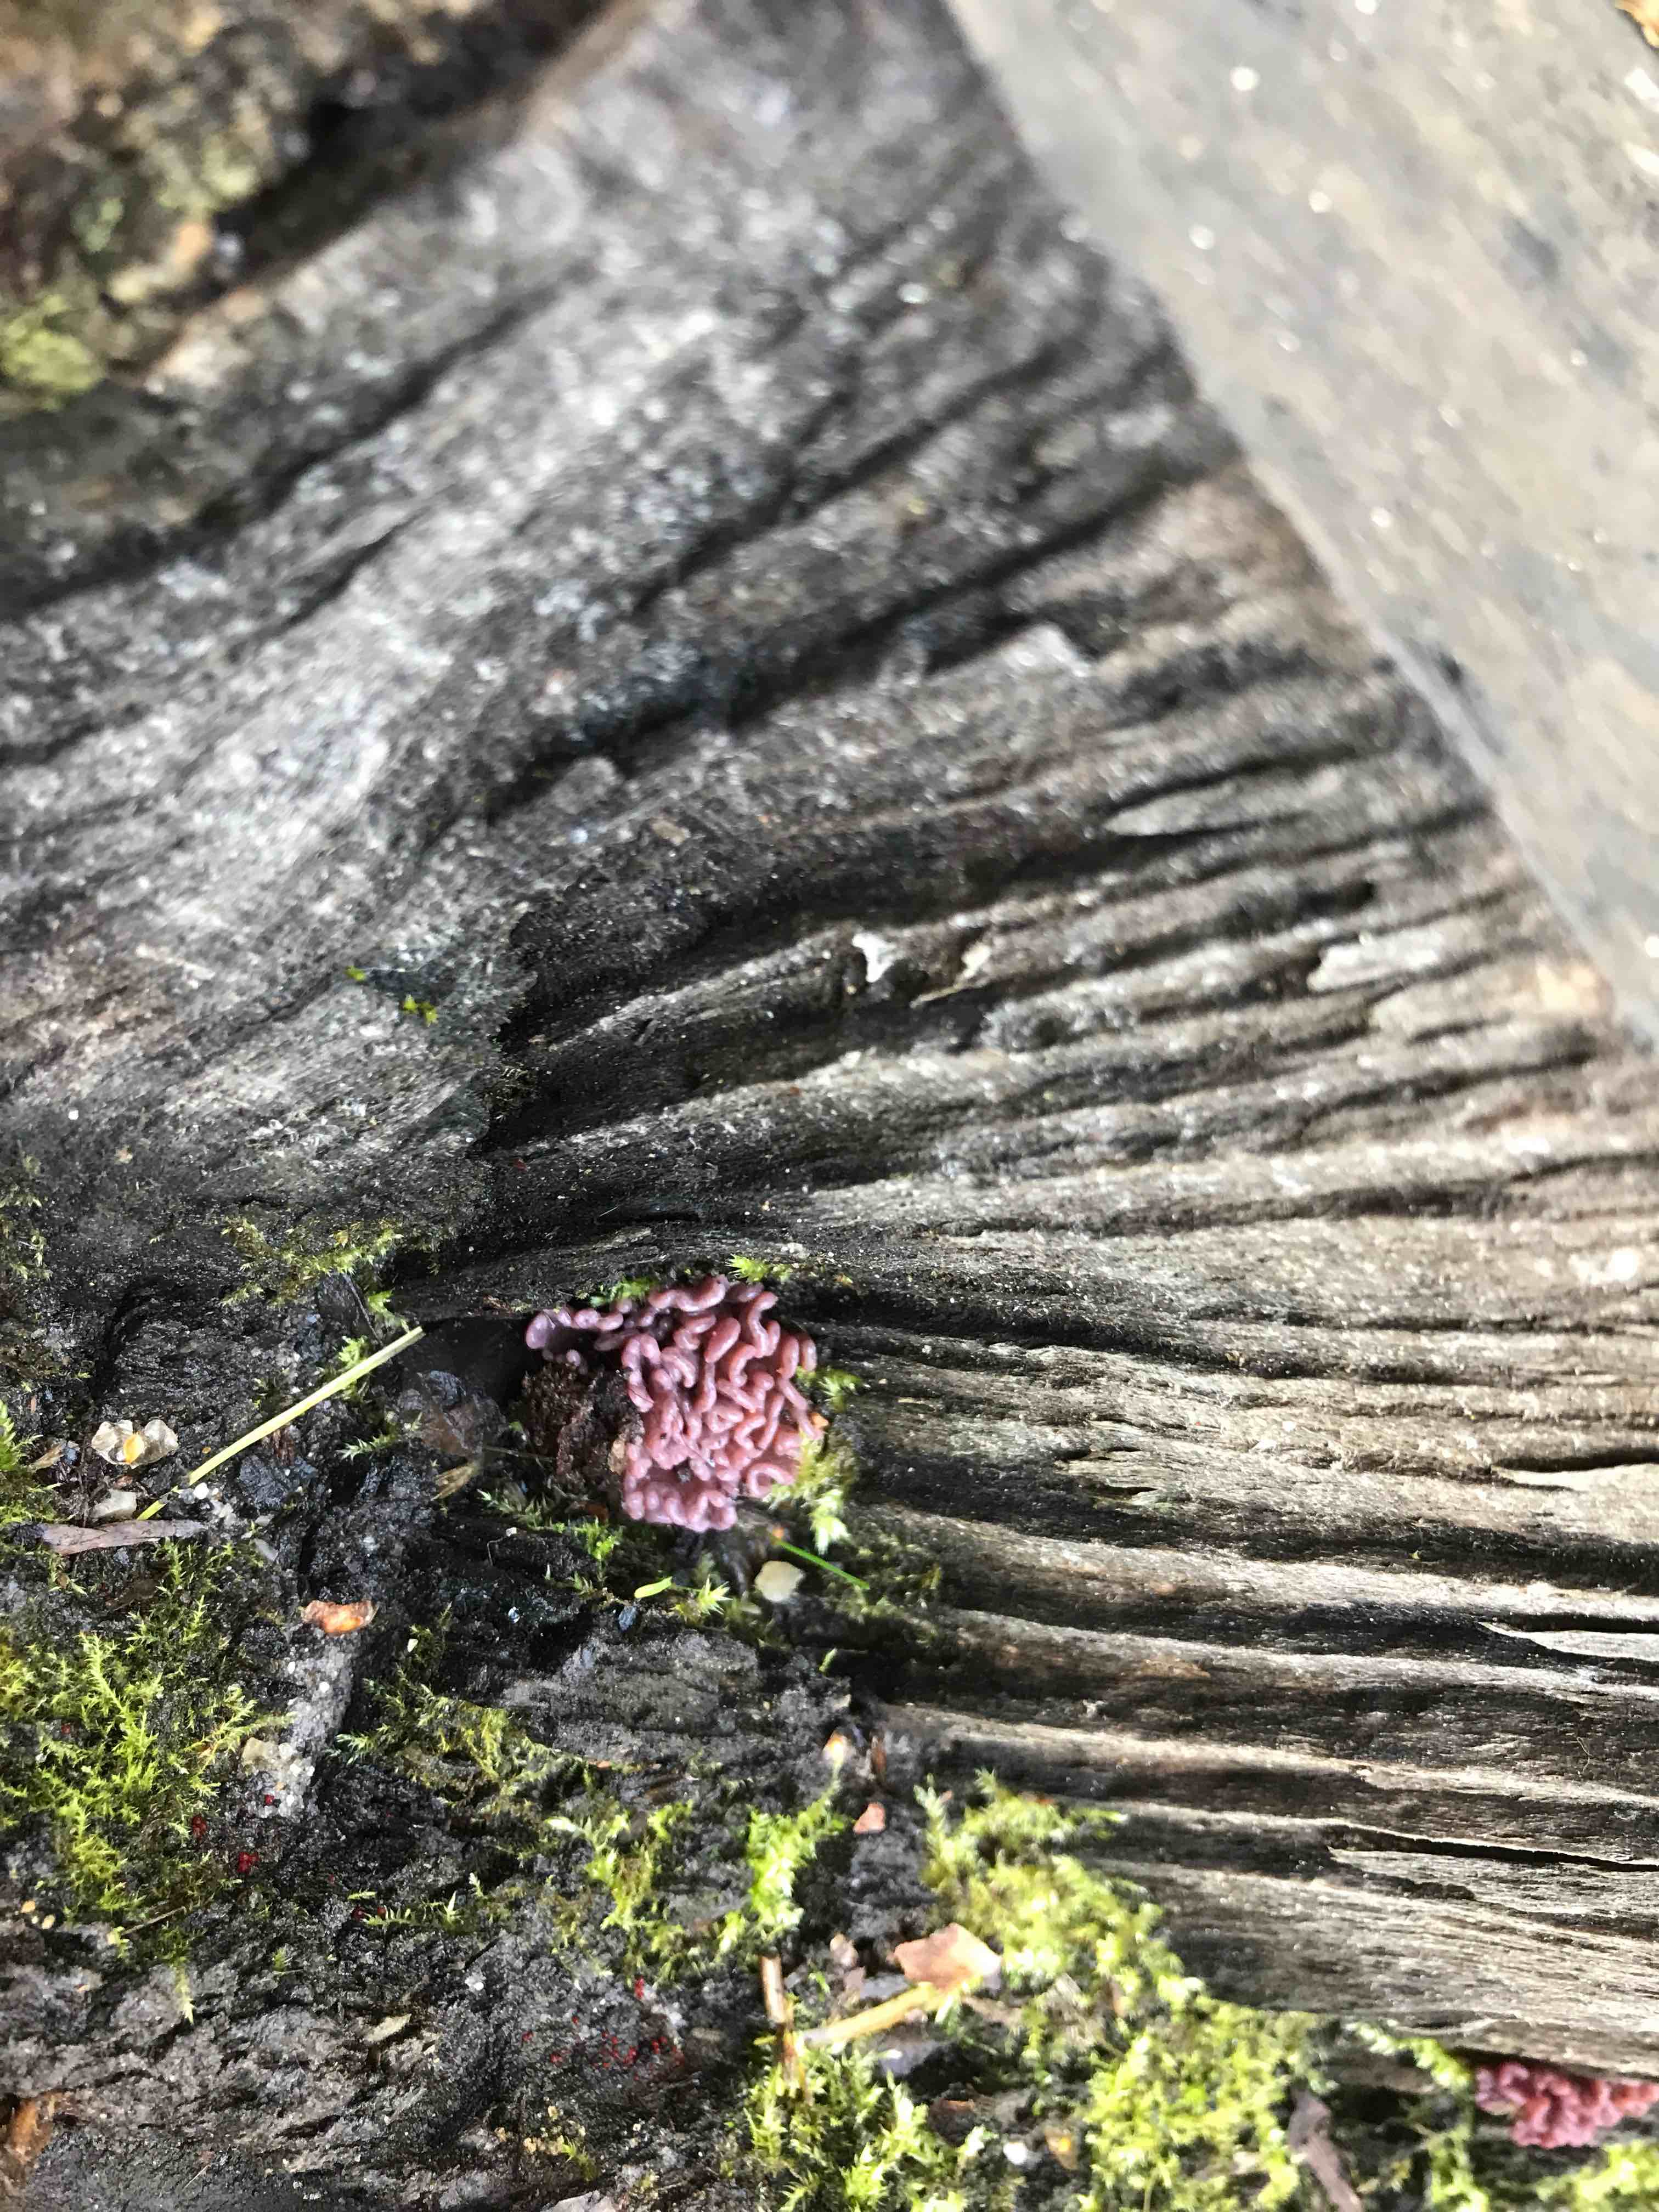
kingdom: Fungi
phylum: Ascomycota
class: Leotiomycetes
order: Helotiales
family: Gelatinodiscaceae
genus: Ascocoryne
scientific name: Ascocoryne sarcoides
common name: rødlilla sejskive
